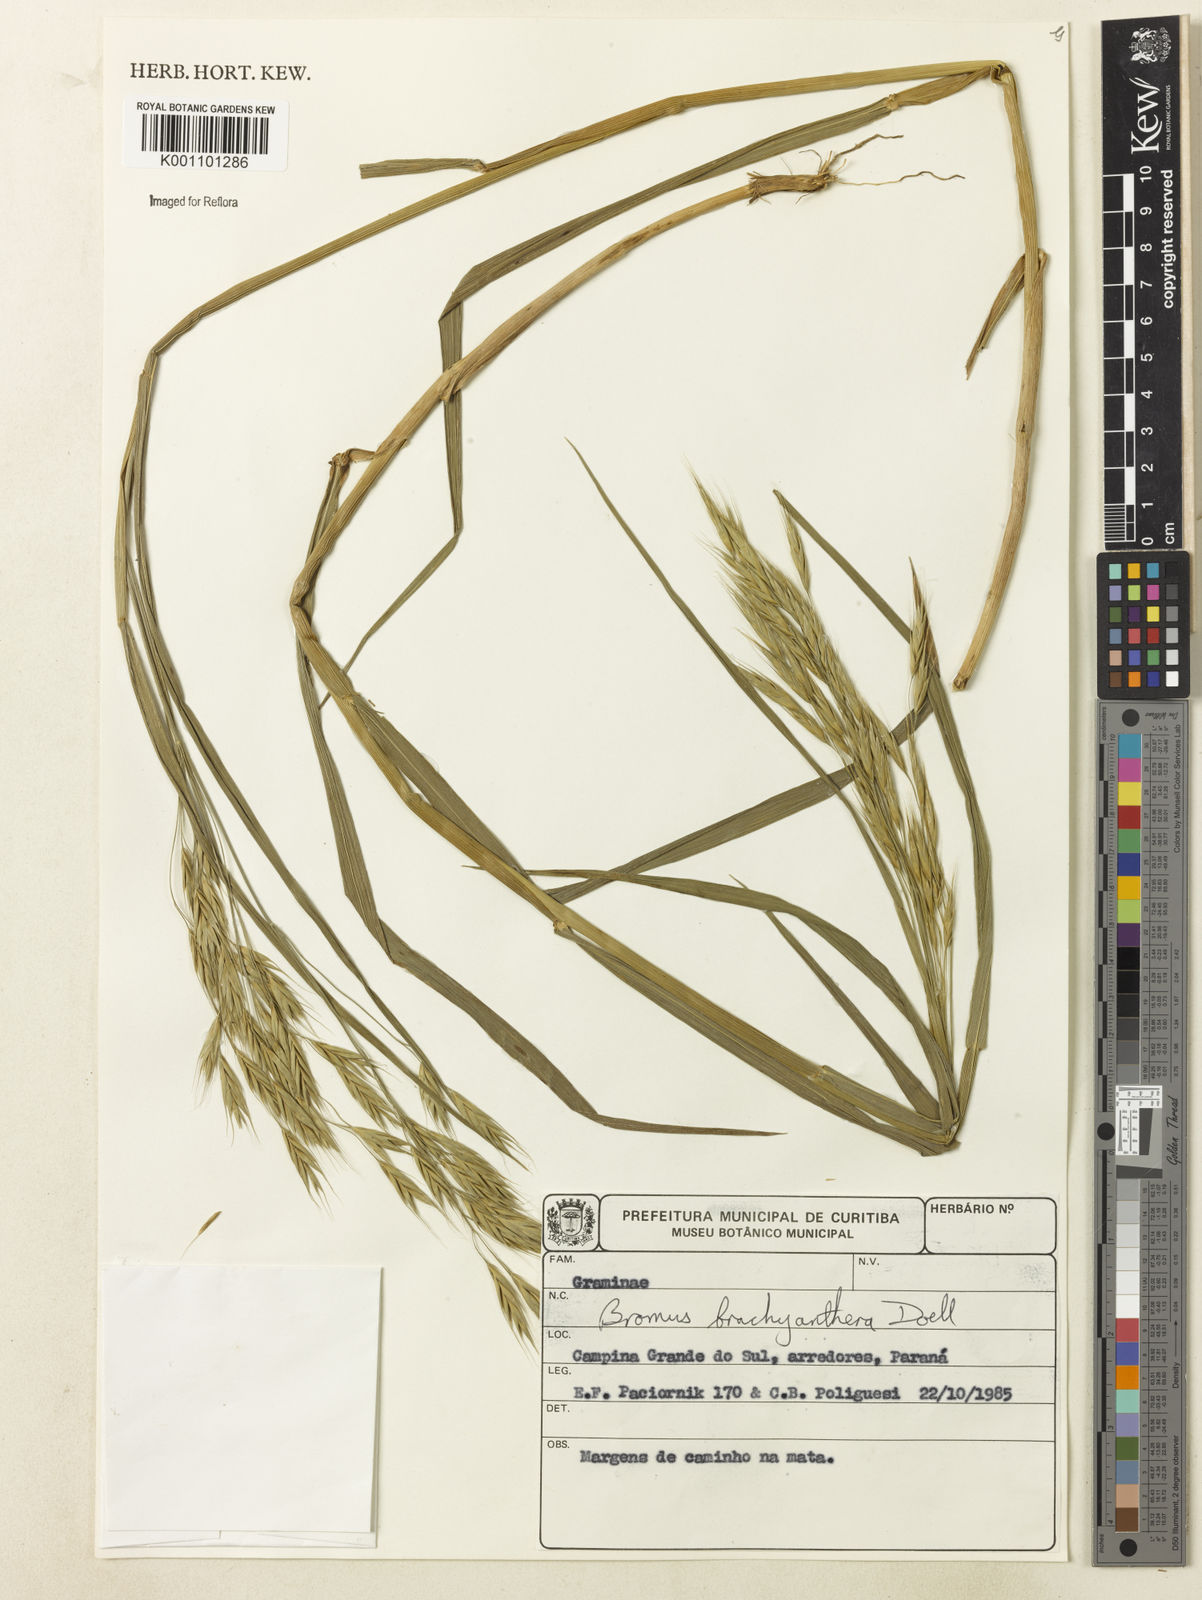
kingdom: Plantae
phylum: Tracheophyta
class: Liliopsida
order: Poales
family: Poaceae
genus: Bromus
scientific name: Bromus
